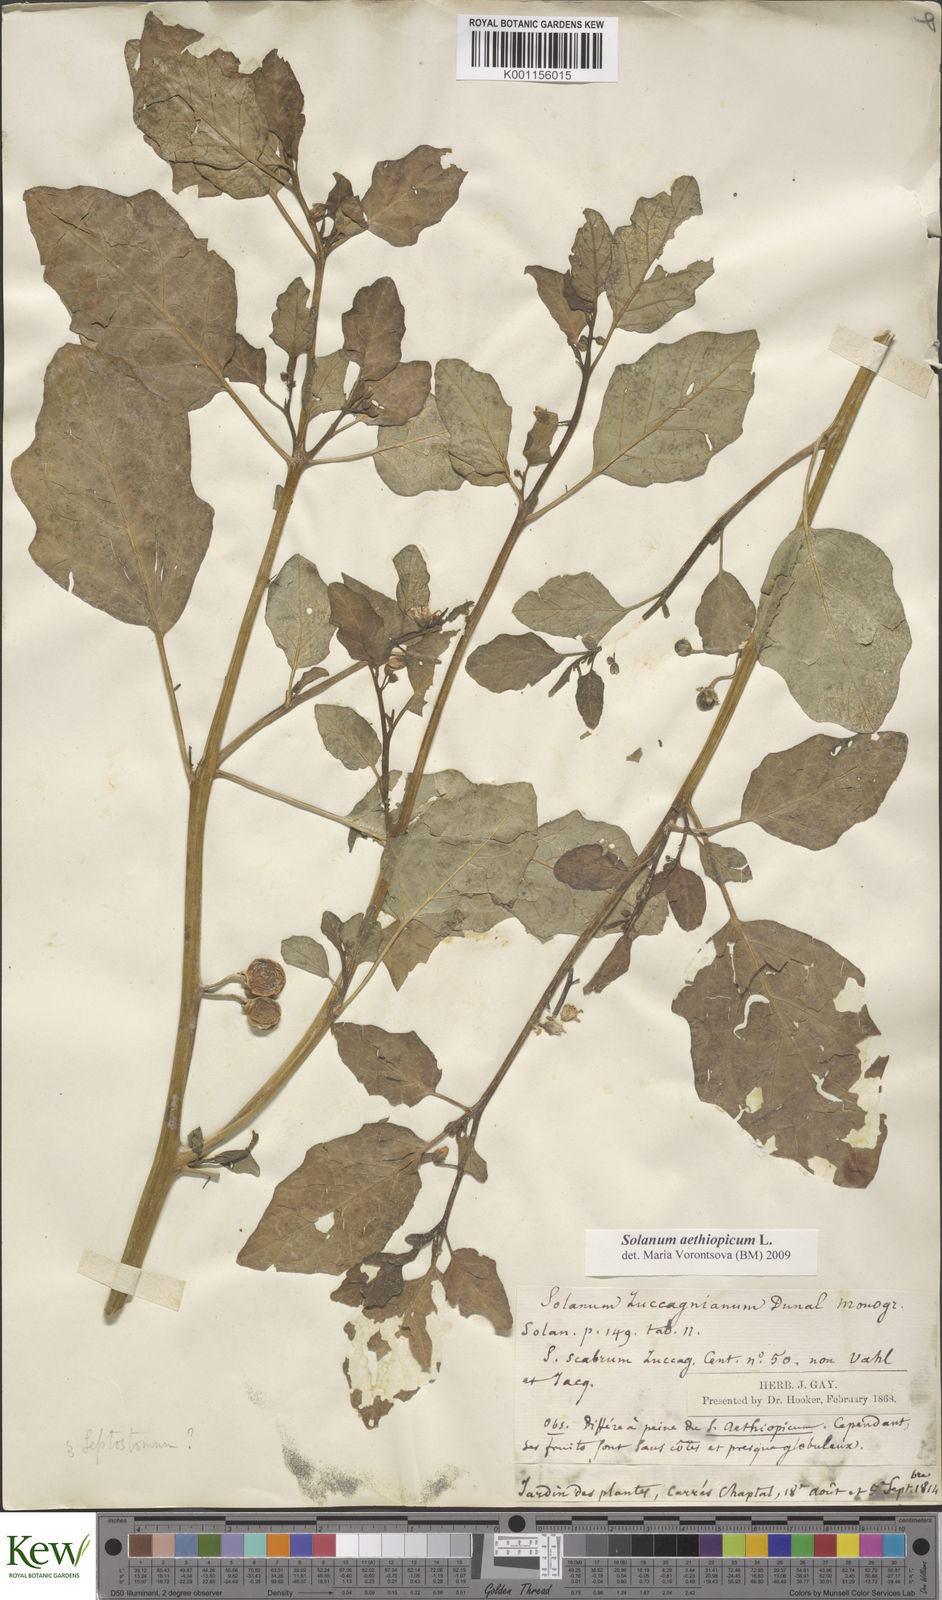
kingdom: Plantae
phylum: Tracheophyta
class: Magnoliopsida
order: Solanales
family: Solanaceae
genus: Solanum
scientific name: Solanum aethiopicum
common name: Gilo
